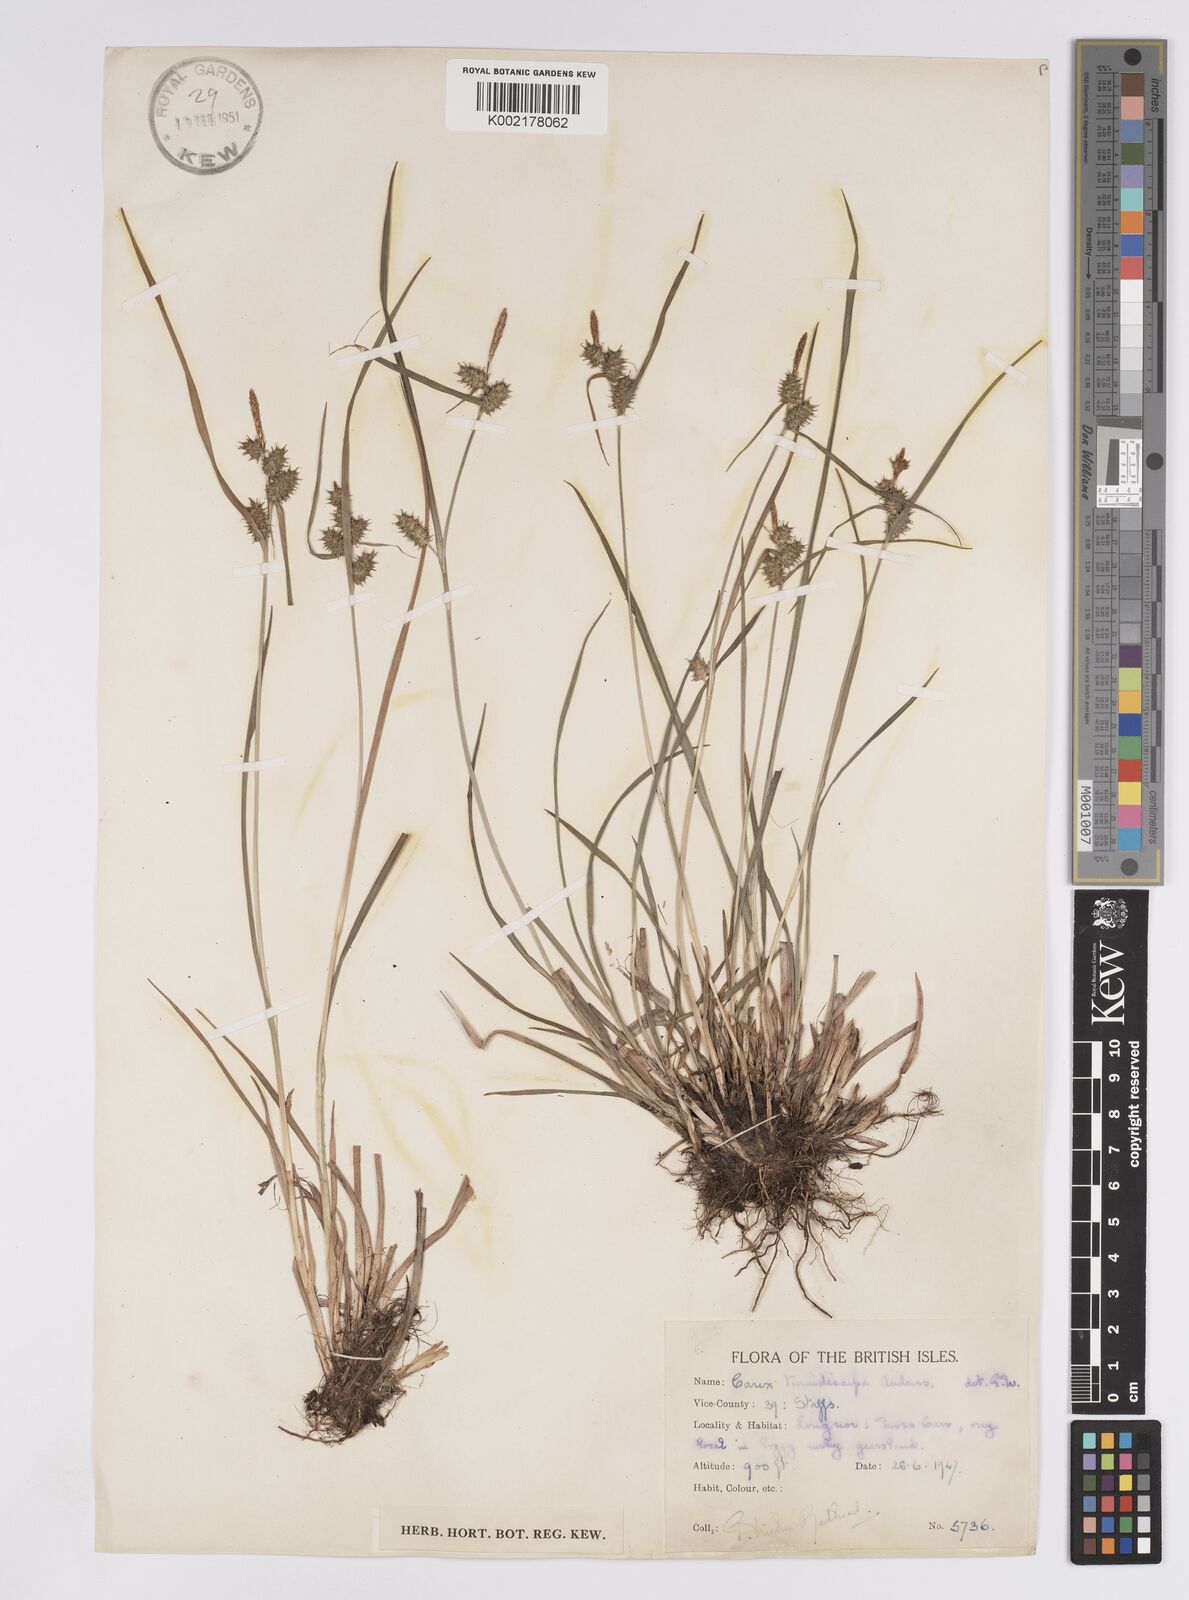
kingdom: Plantae
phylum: Tracheophyta
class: Liliopsida
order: Poales
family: Cyperaceae
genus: Carex
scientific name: Carex demissa
